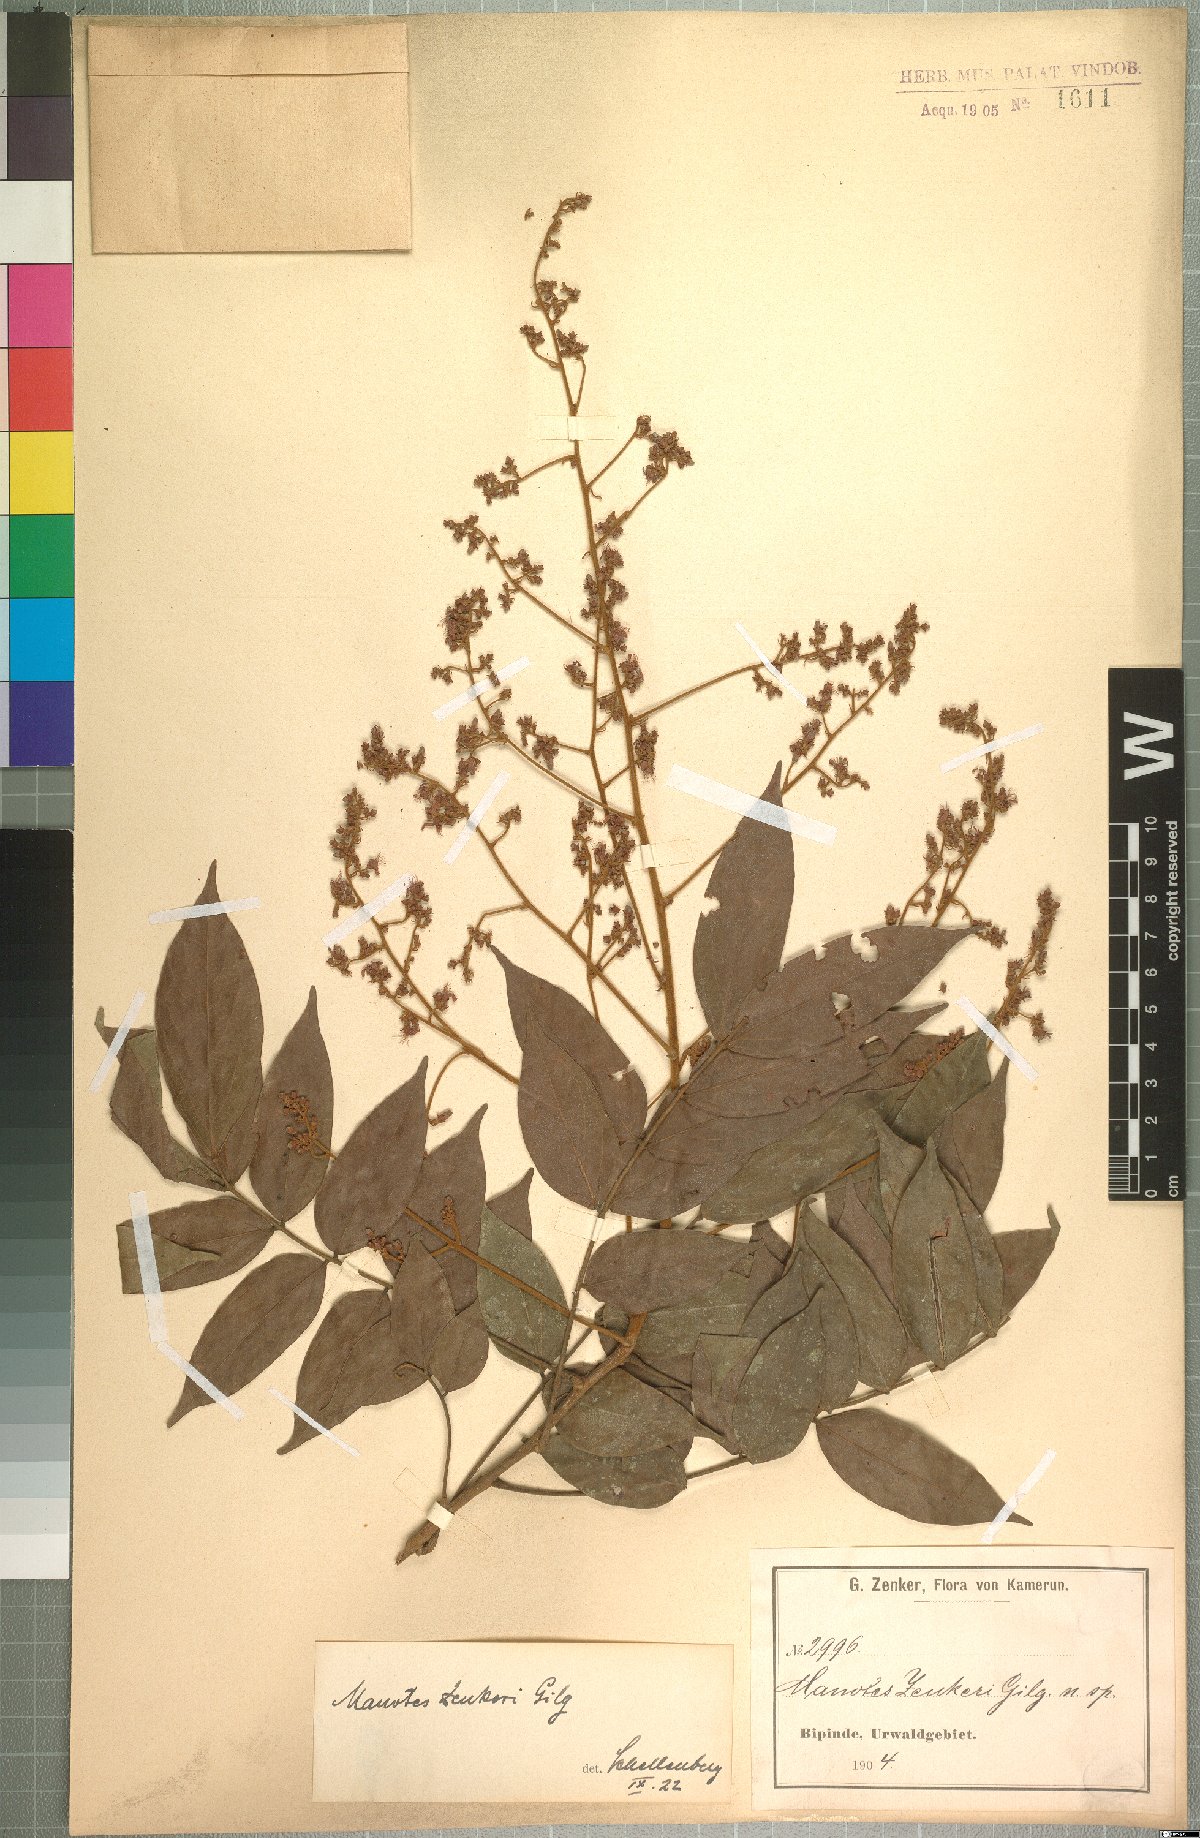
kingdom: Plantae
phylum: Tracheophyta
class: Magnoliopsida
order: Oxalidales
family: Connaraceae
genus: Manotes
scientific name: Manotes griffoniana
